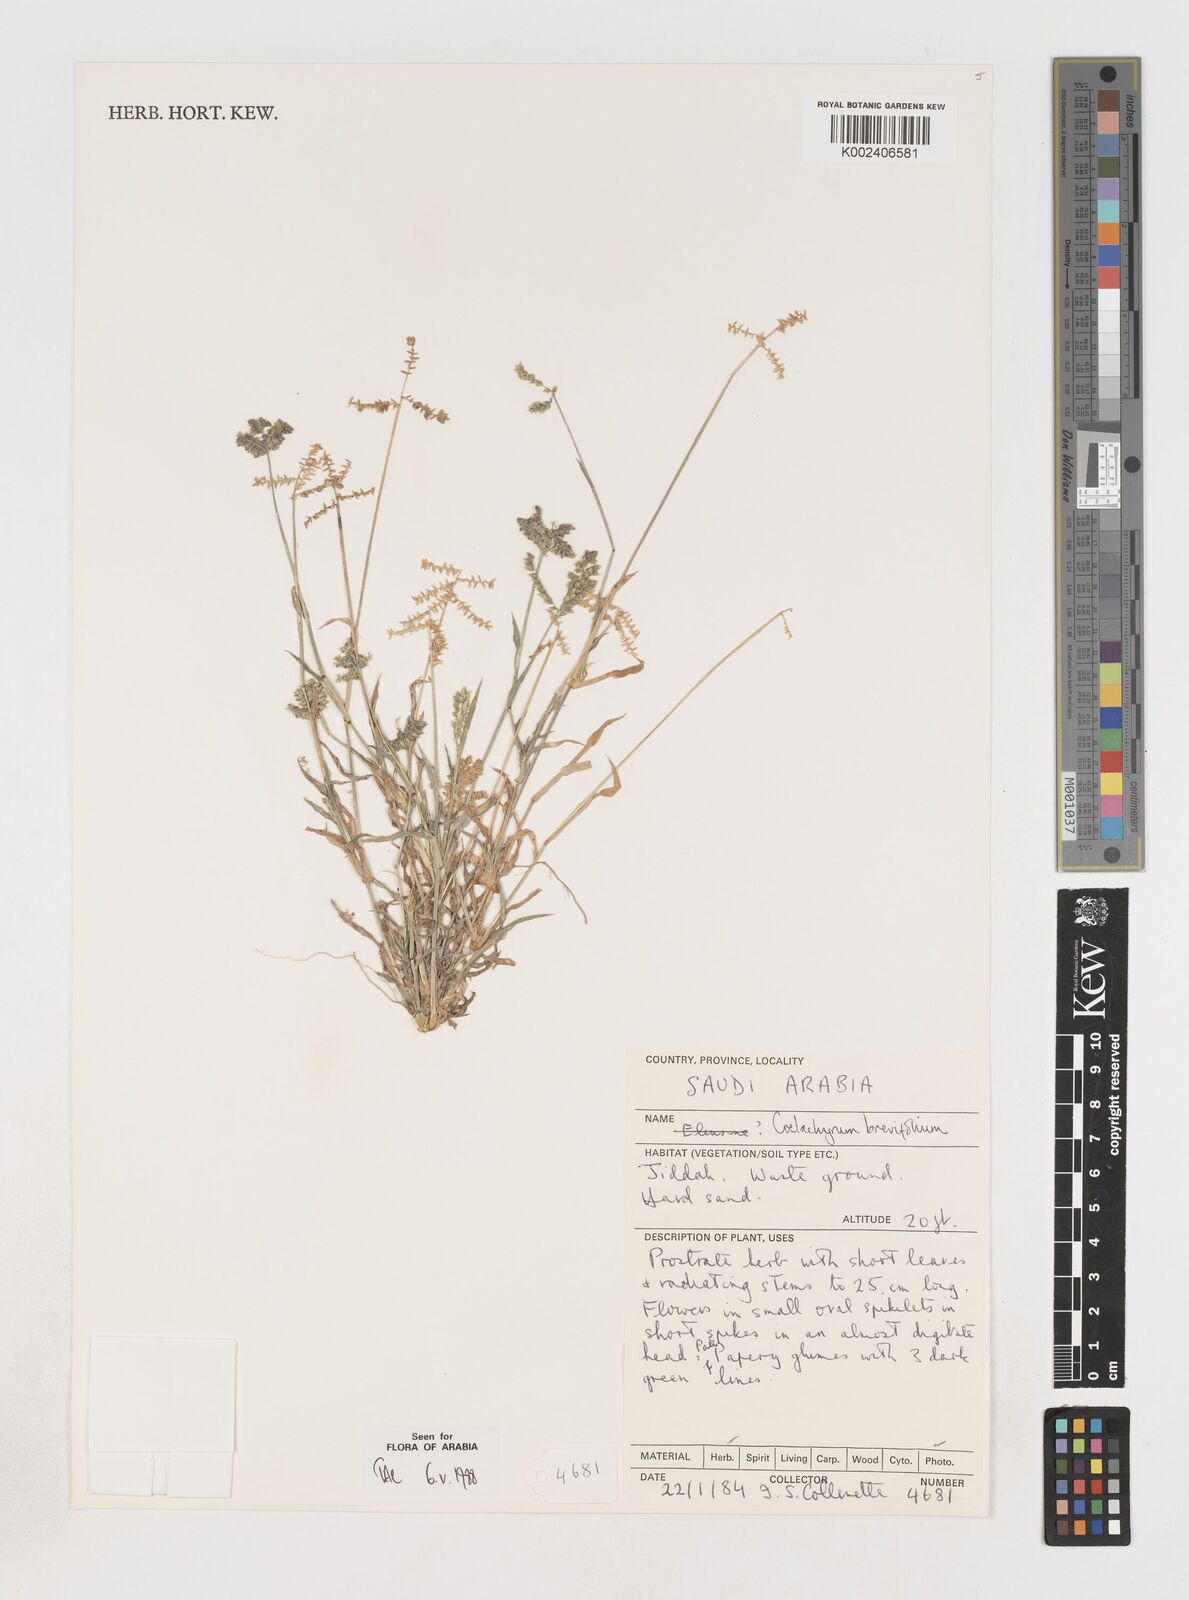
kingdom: Plantae
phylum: Tracheophyta
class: Liliopsida
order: Poales
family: Poaceae
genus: Coelachyrum
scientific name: Coelachyrum brevifolium
